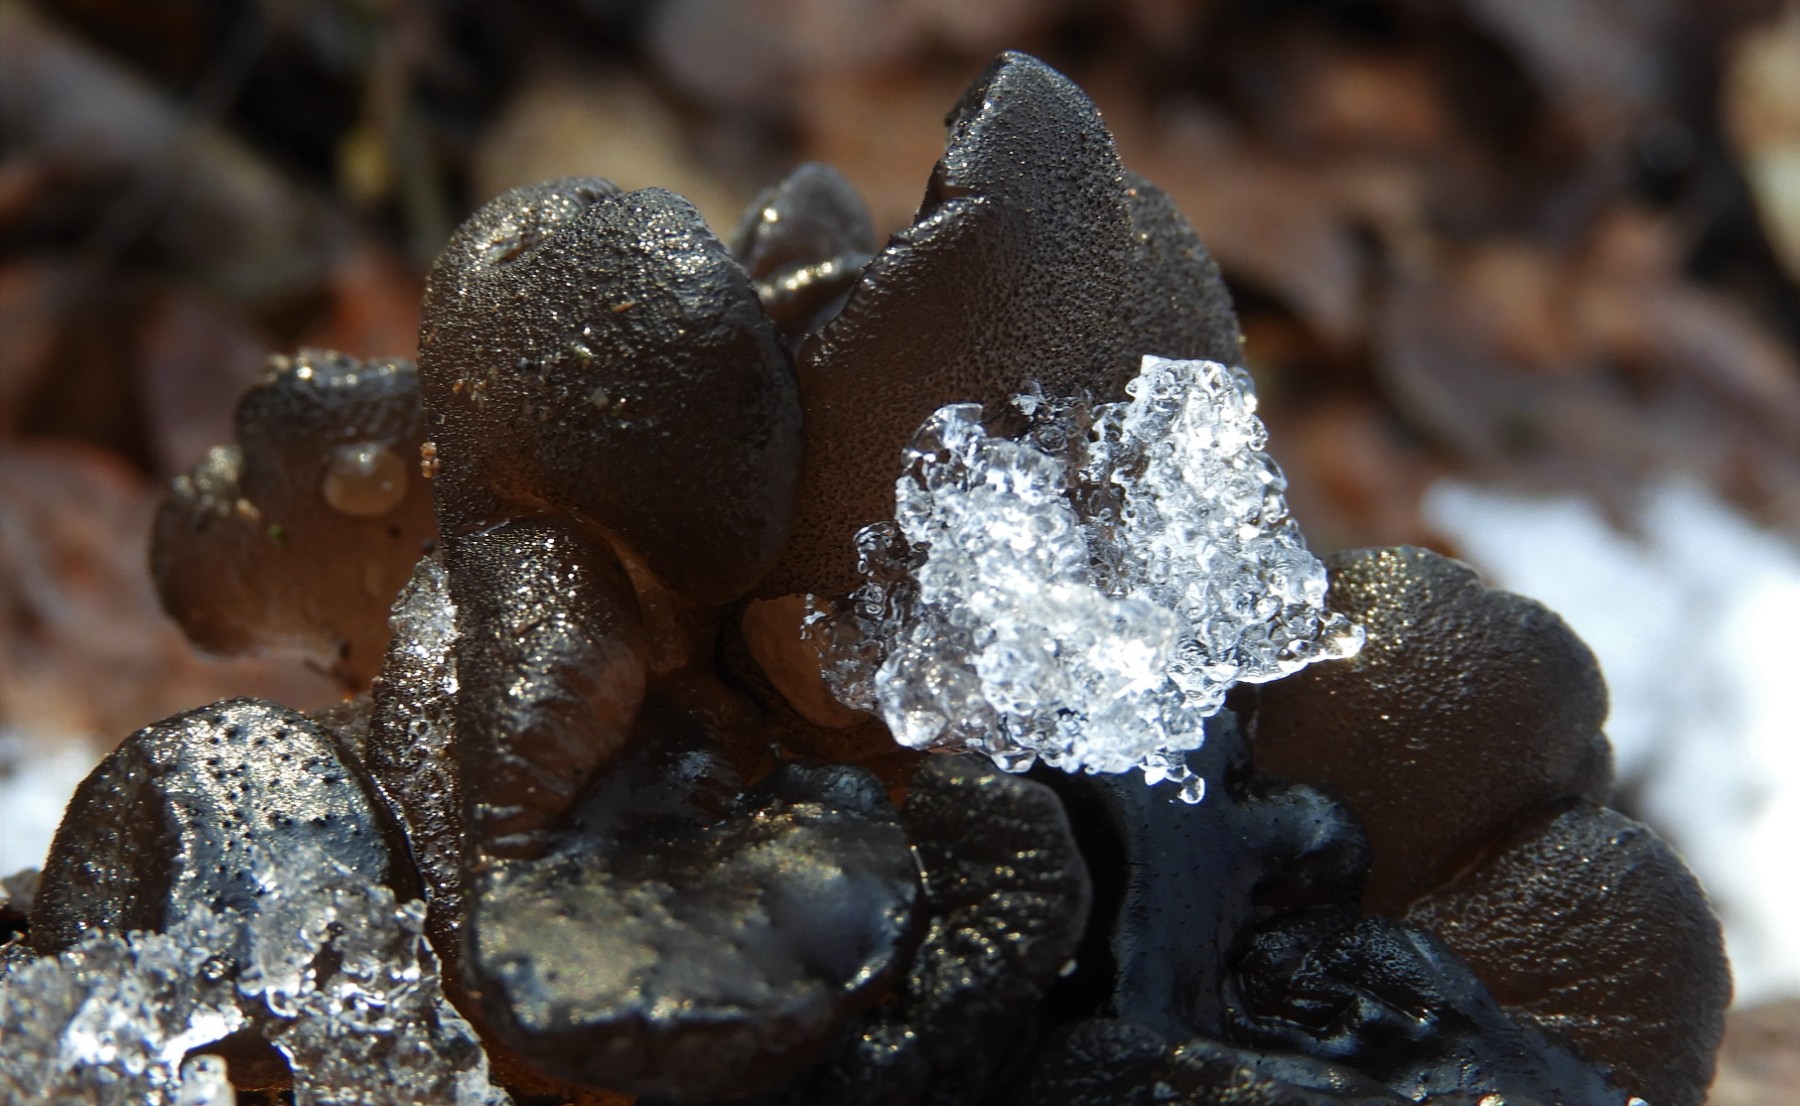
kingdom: Fungi
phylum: Basidiomycota
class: Agaricomycetes
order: Auriculariales
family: Auriculariaceae
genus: Exidia
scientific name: Exidia glandulosa
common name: ege-bævretop
